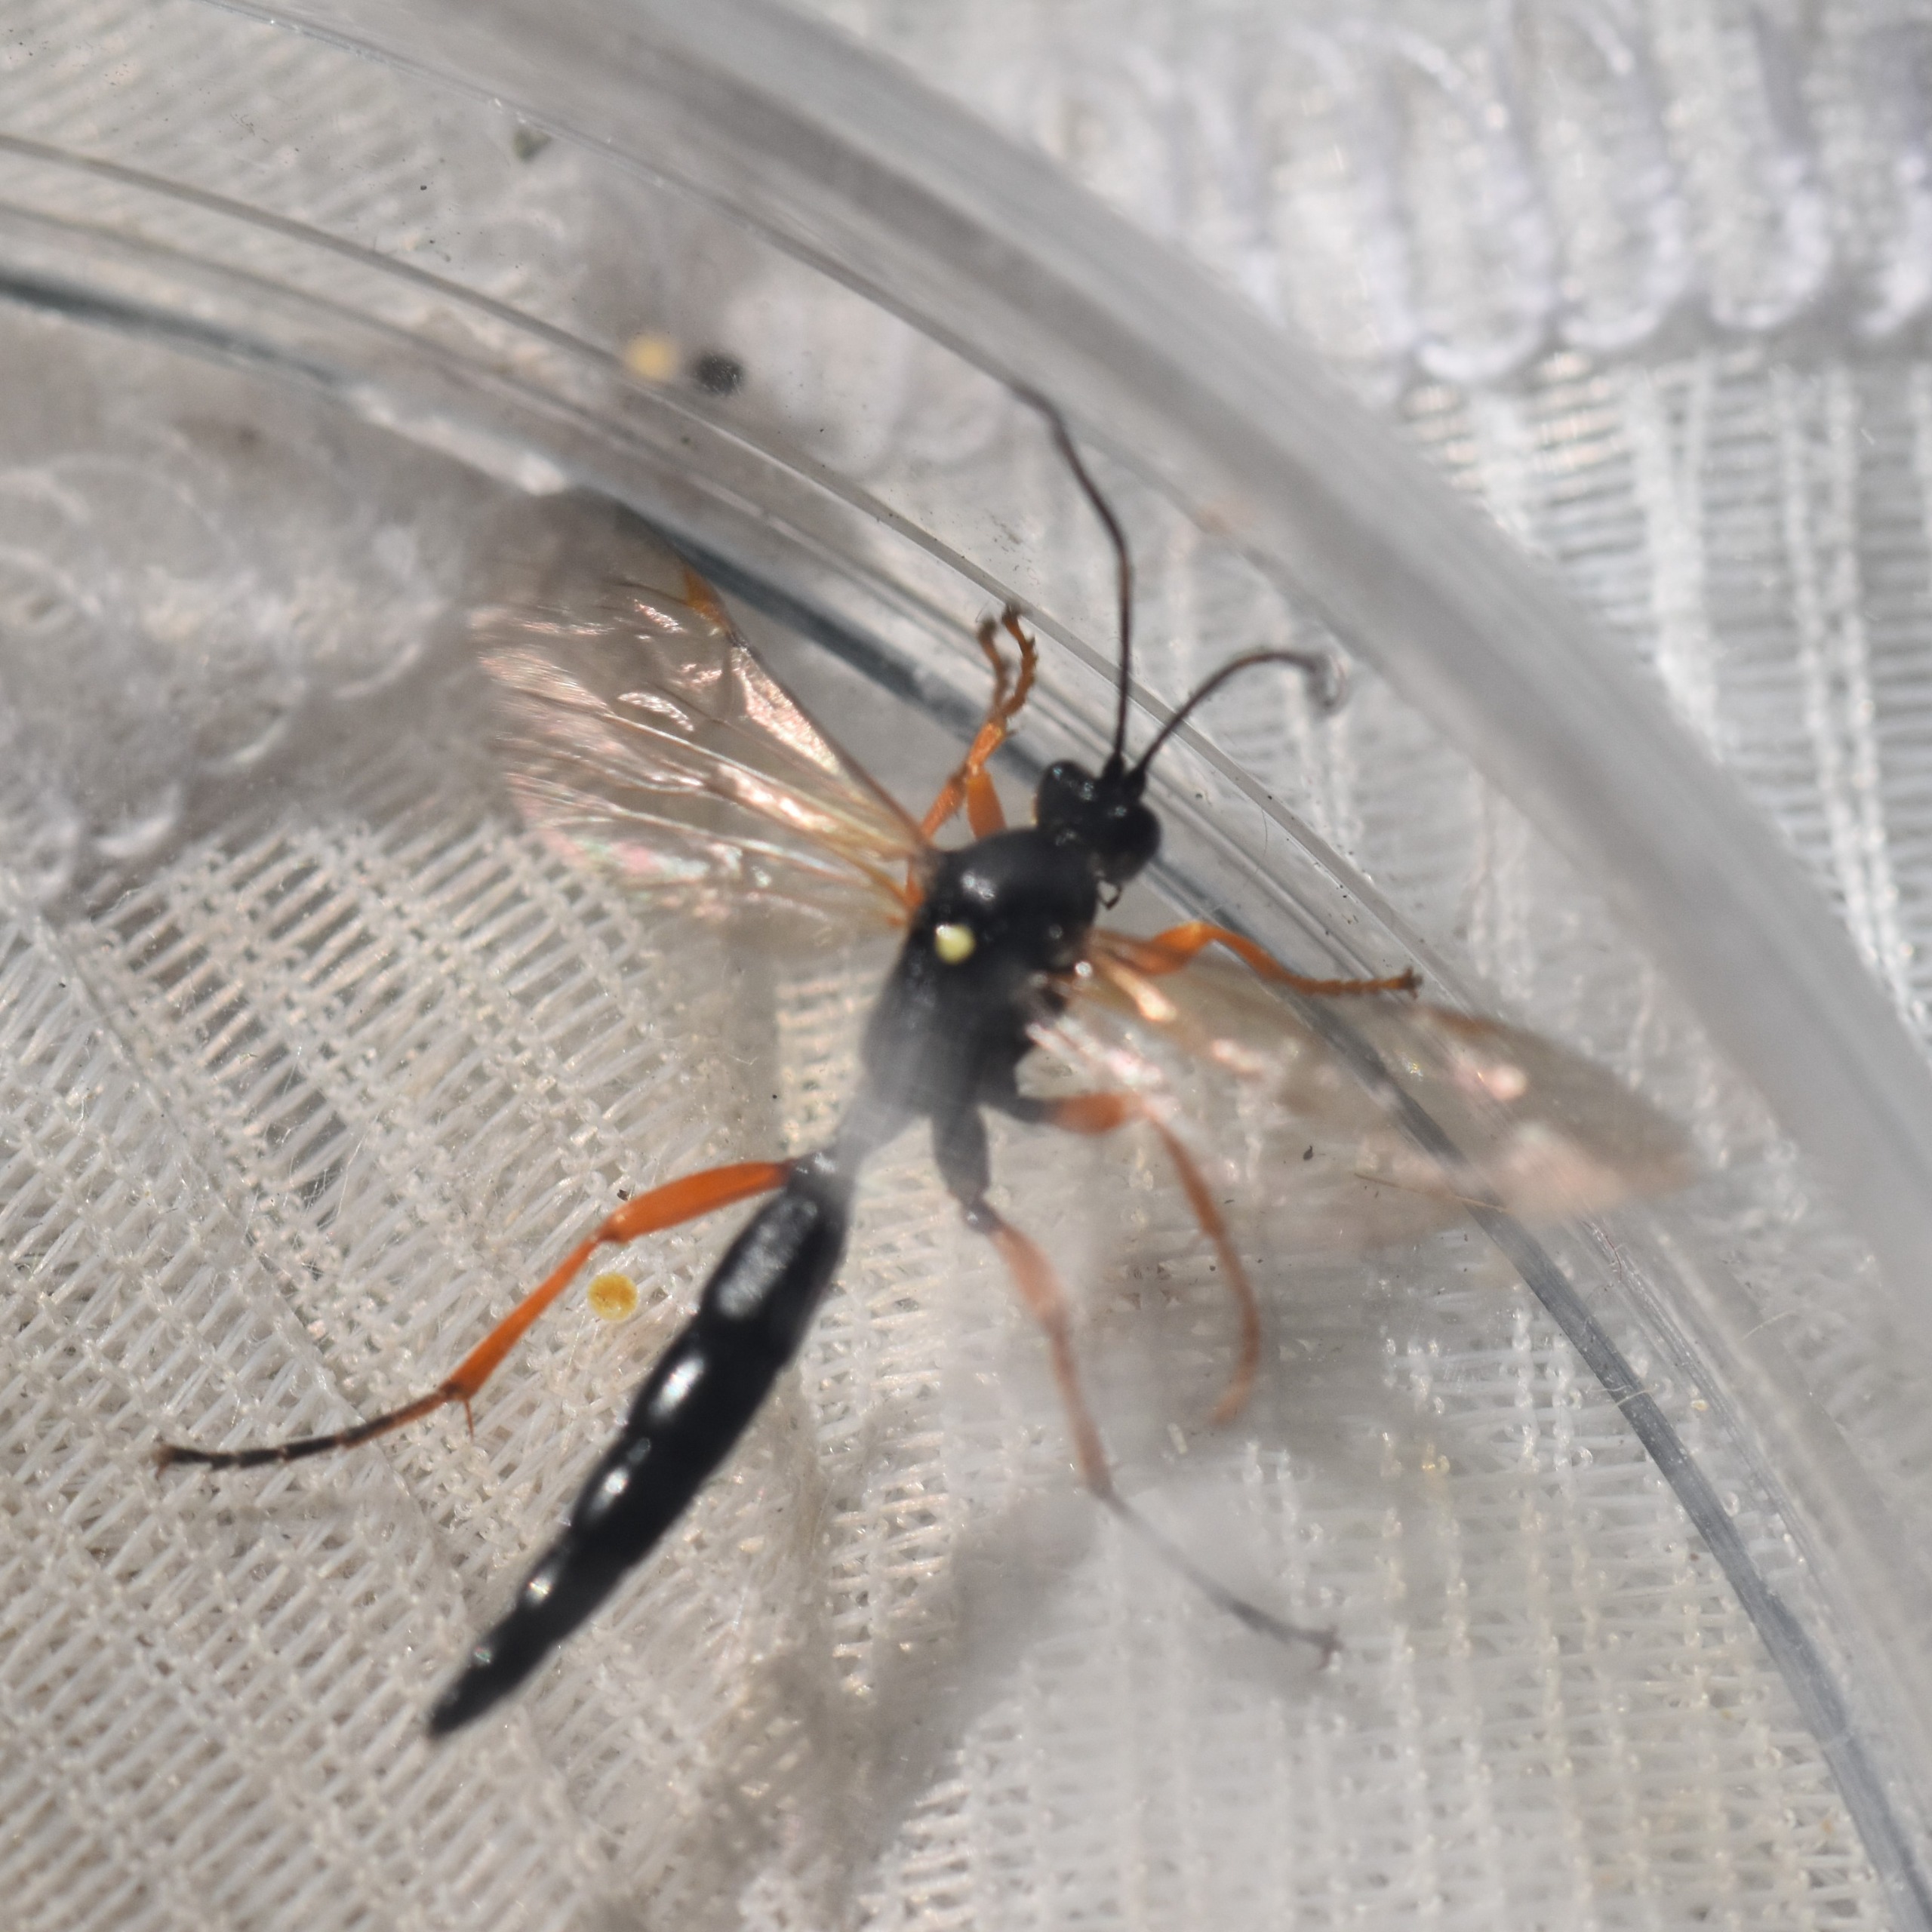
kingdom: Animalia
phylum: Arthropoda
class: Insecta
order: Hymenoptera
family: Ichneumonidae
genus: Limerodops
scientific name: Limerodops elongatus
